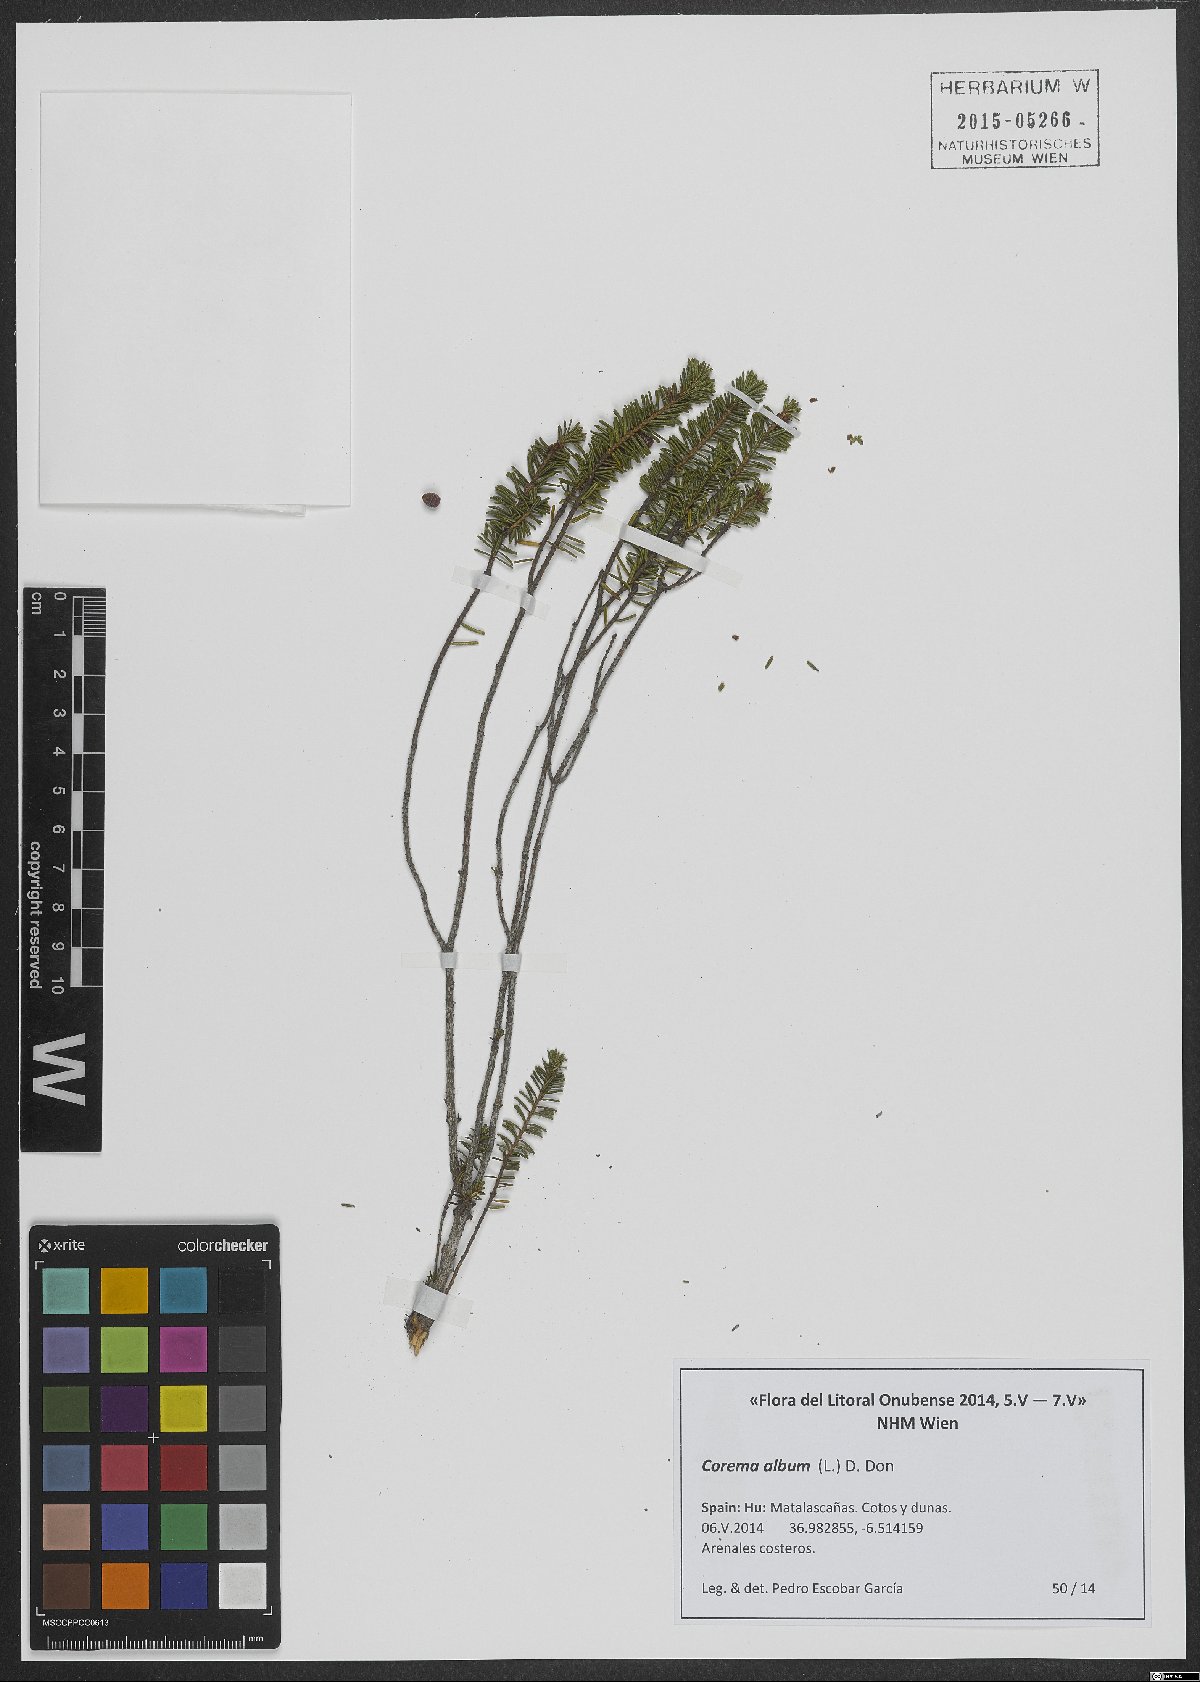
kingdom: Plantae
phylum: Tracheophyta
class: Magnoliopsida
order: Ericales
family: Ericaceae
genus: Corema
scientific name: Corema album
